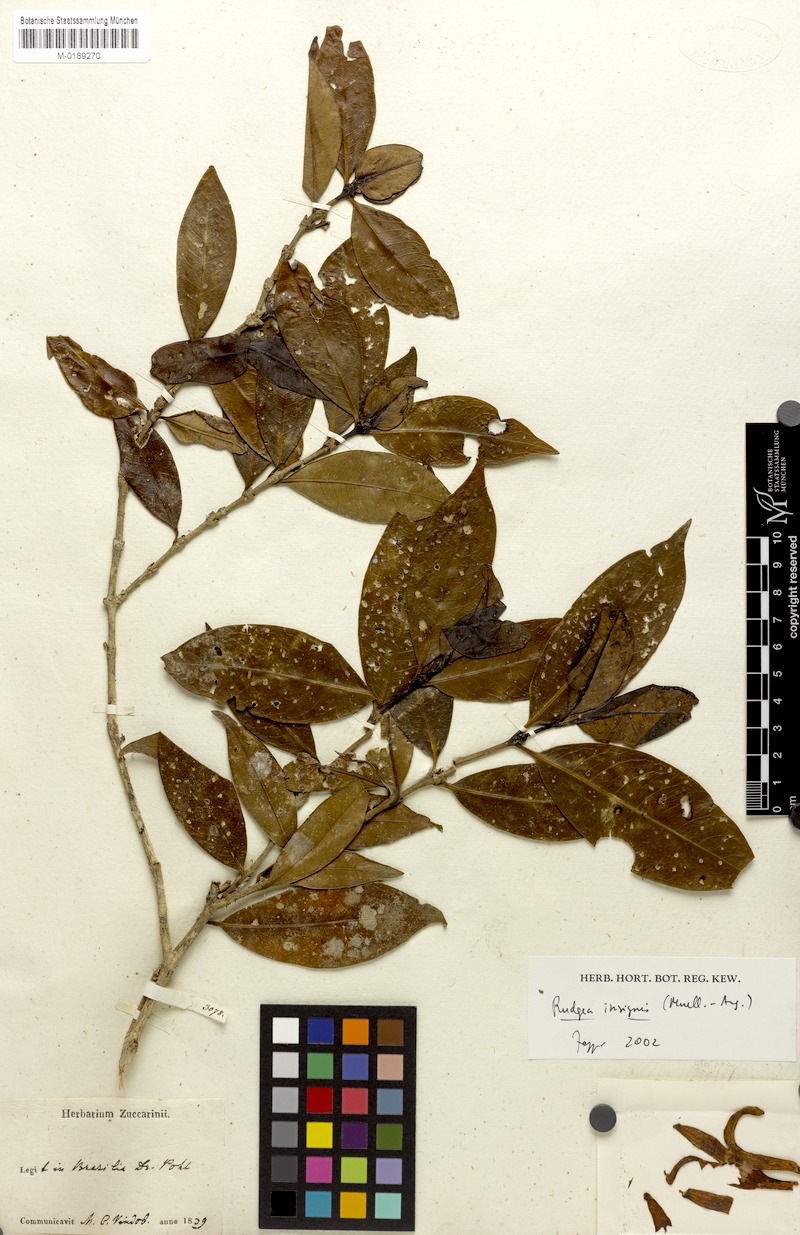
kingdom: Plantae
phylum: Tracheophyta
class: Magnoliopsida
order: Gentianales
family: Rubiaceae
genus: Rudgea
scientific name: Rudgea insignis
